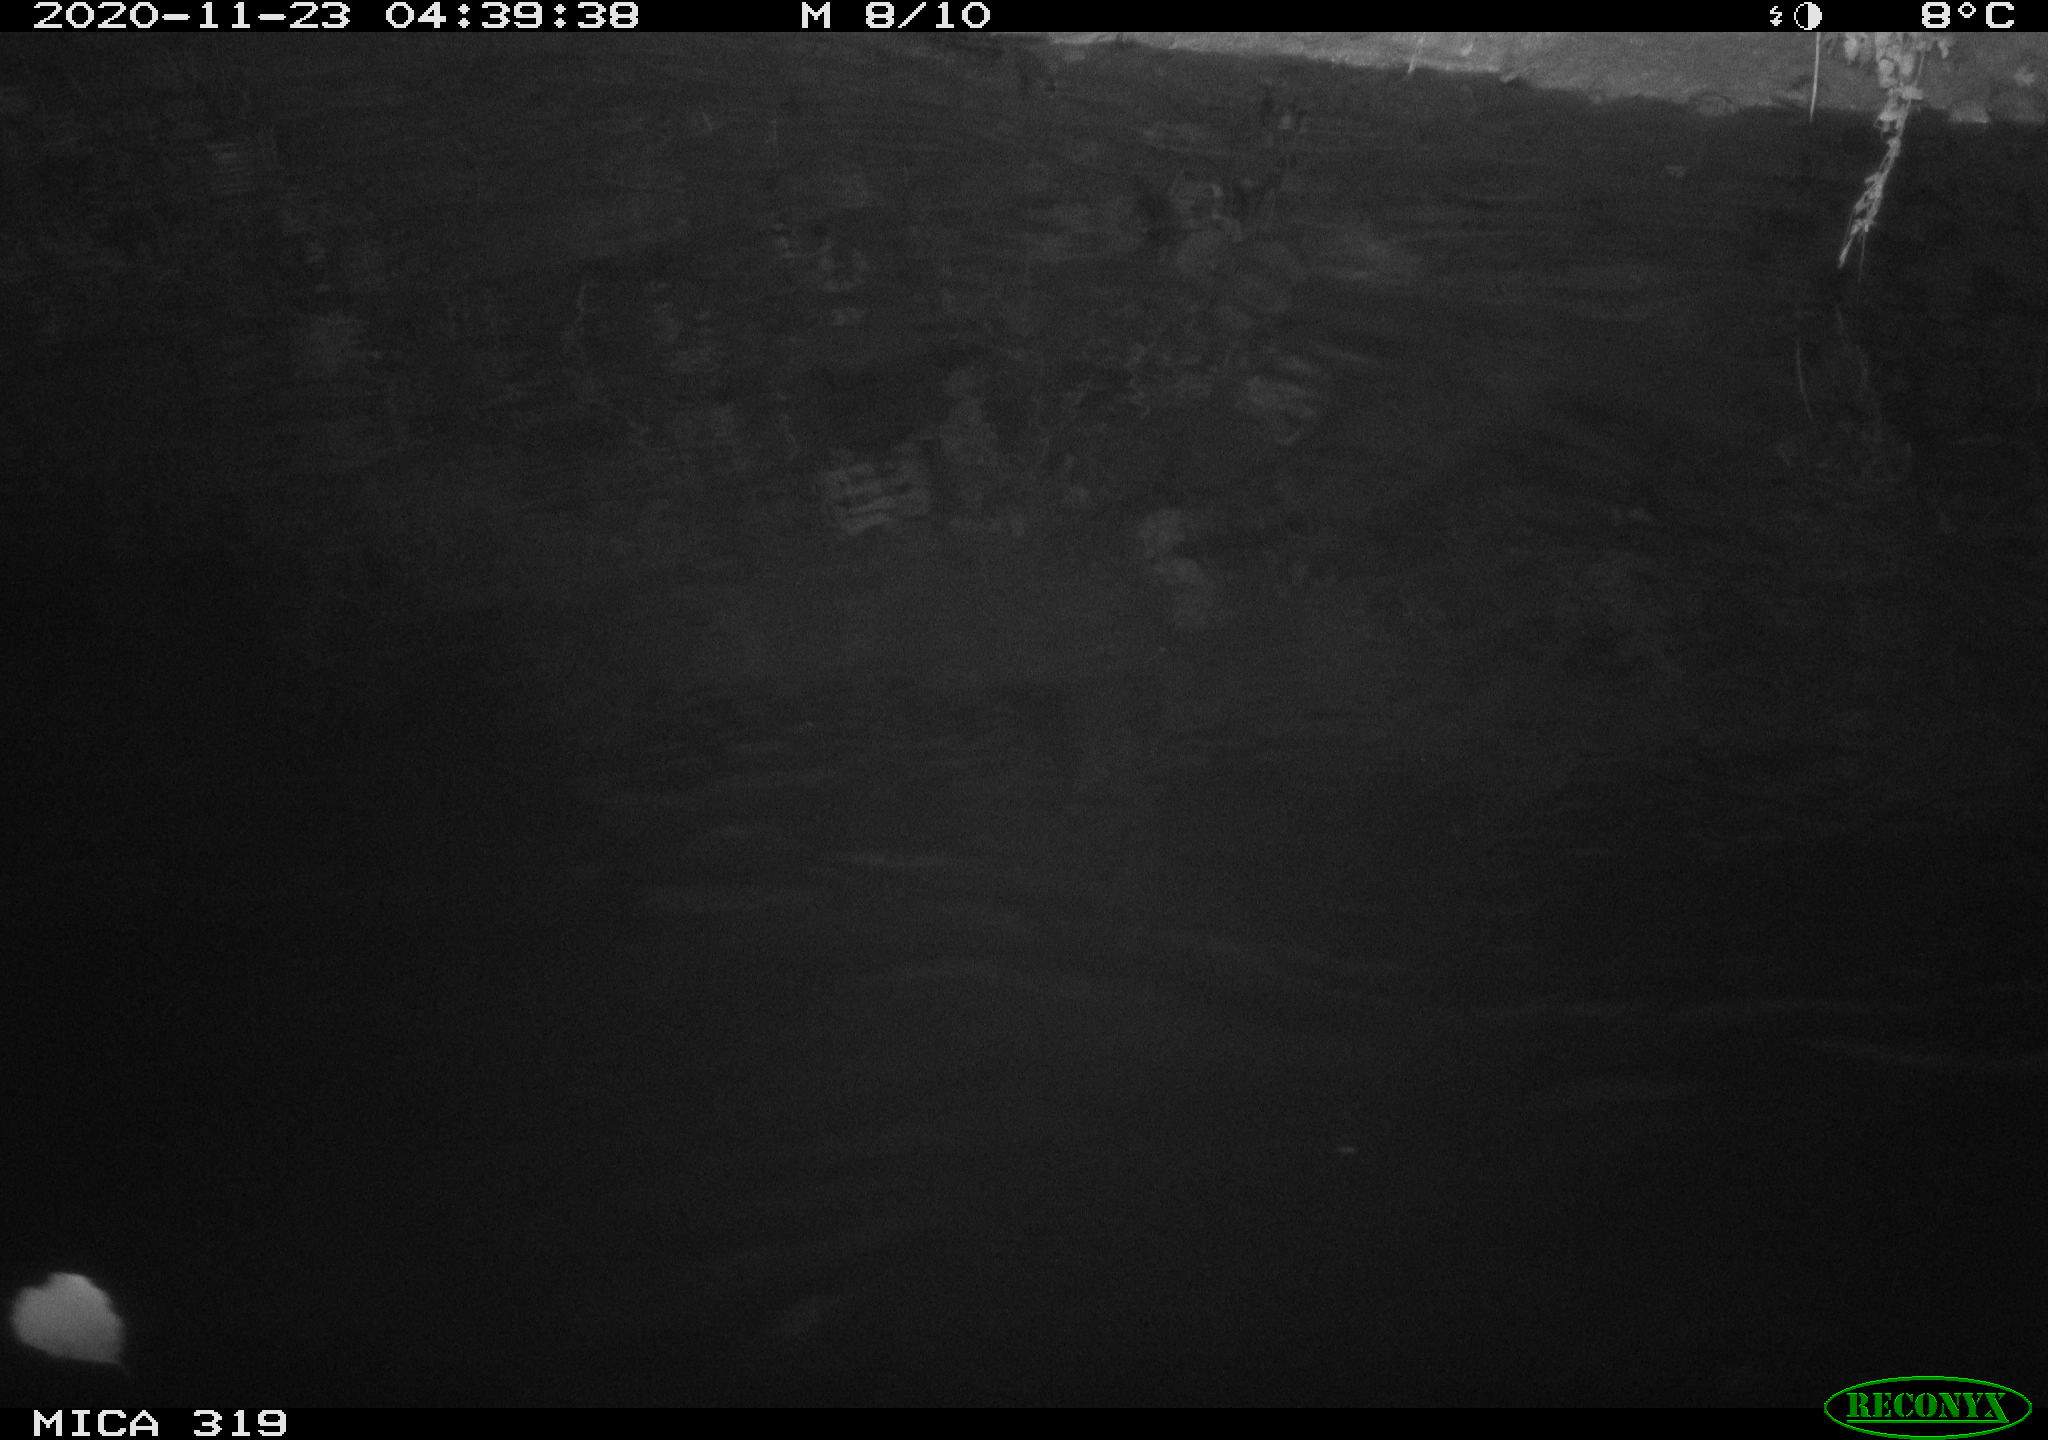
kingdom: Animalia
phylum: Chordata
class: Aves
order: Anseriformes
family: Anatidae
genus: Anas
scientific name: Anas platyrhynchos
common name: Mallard
